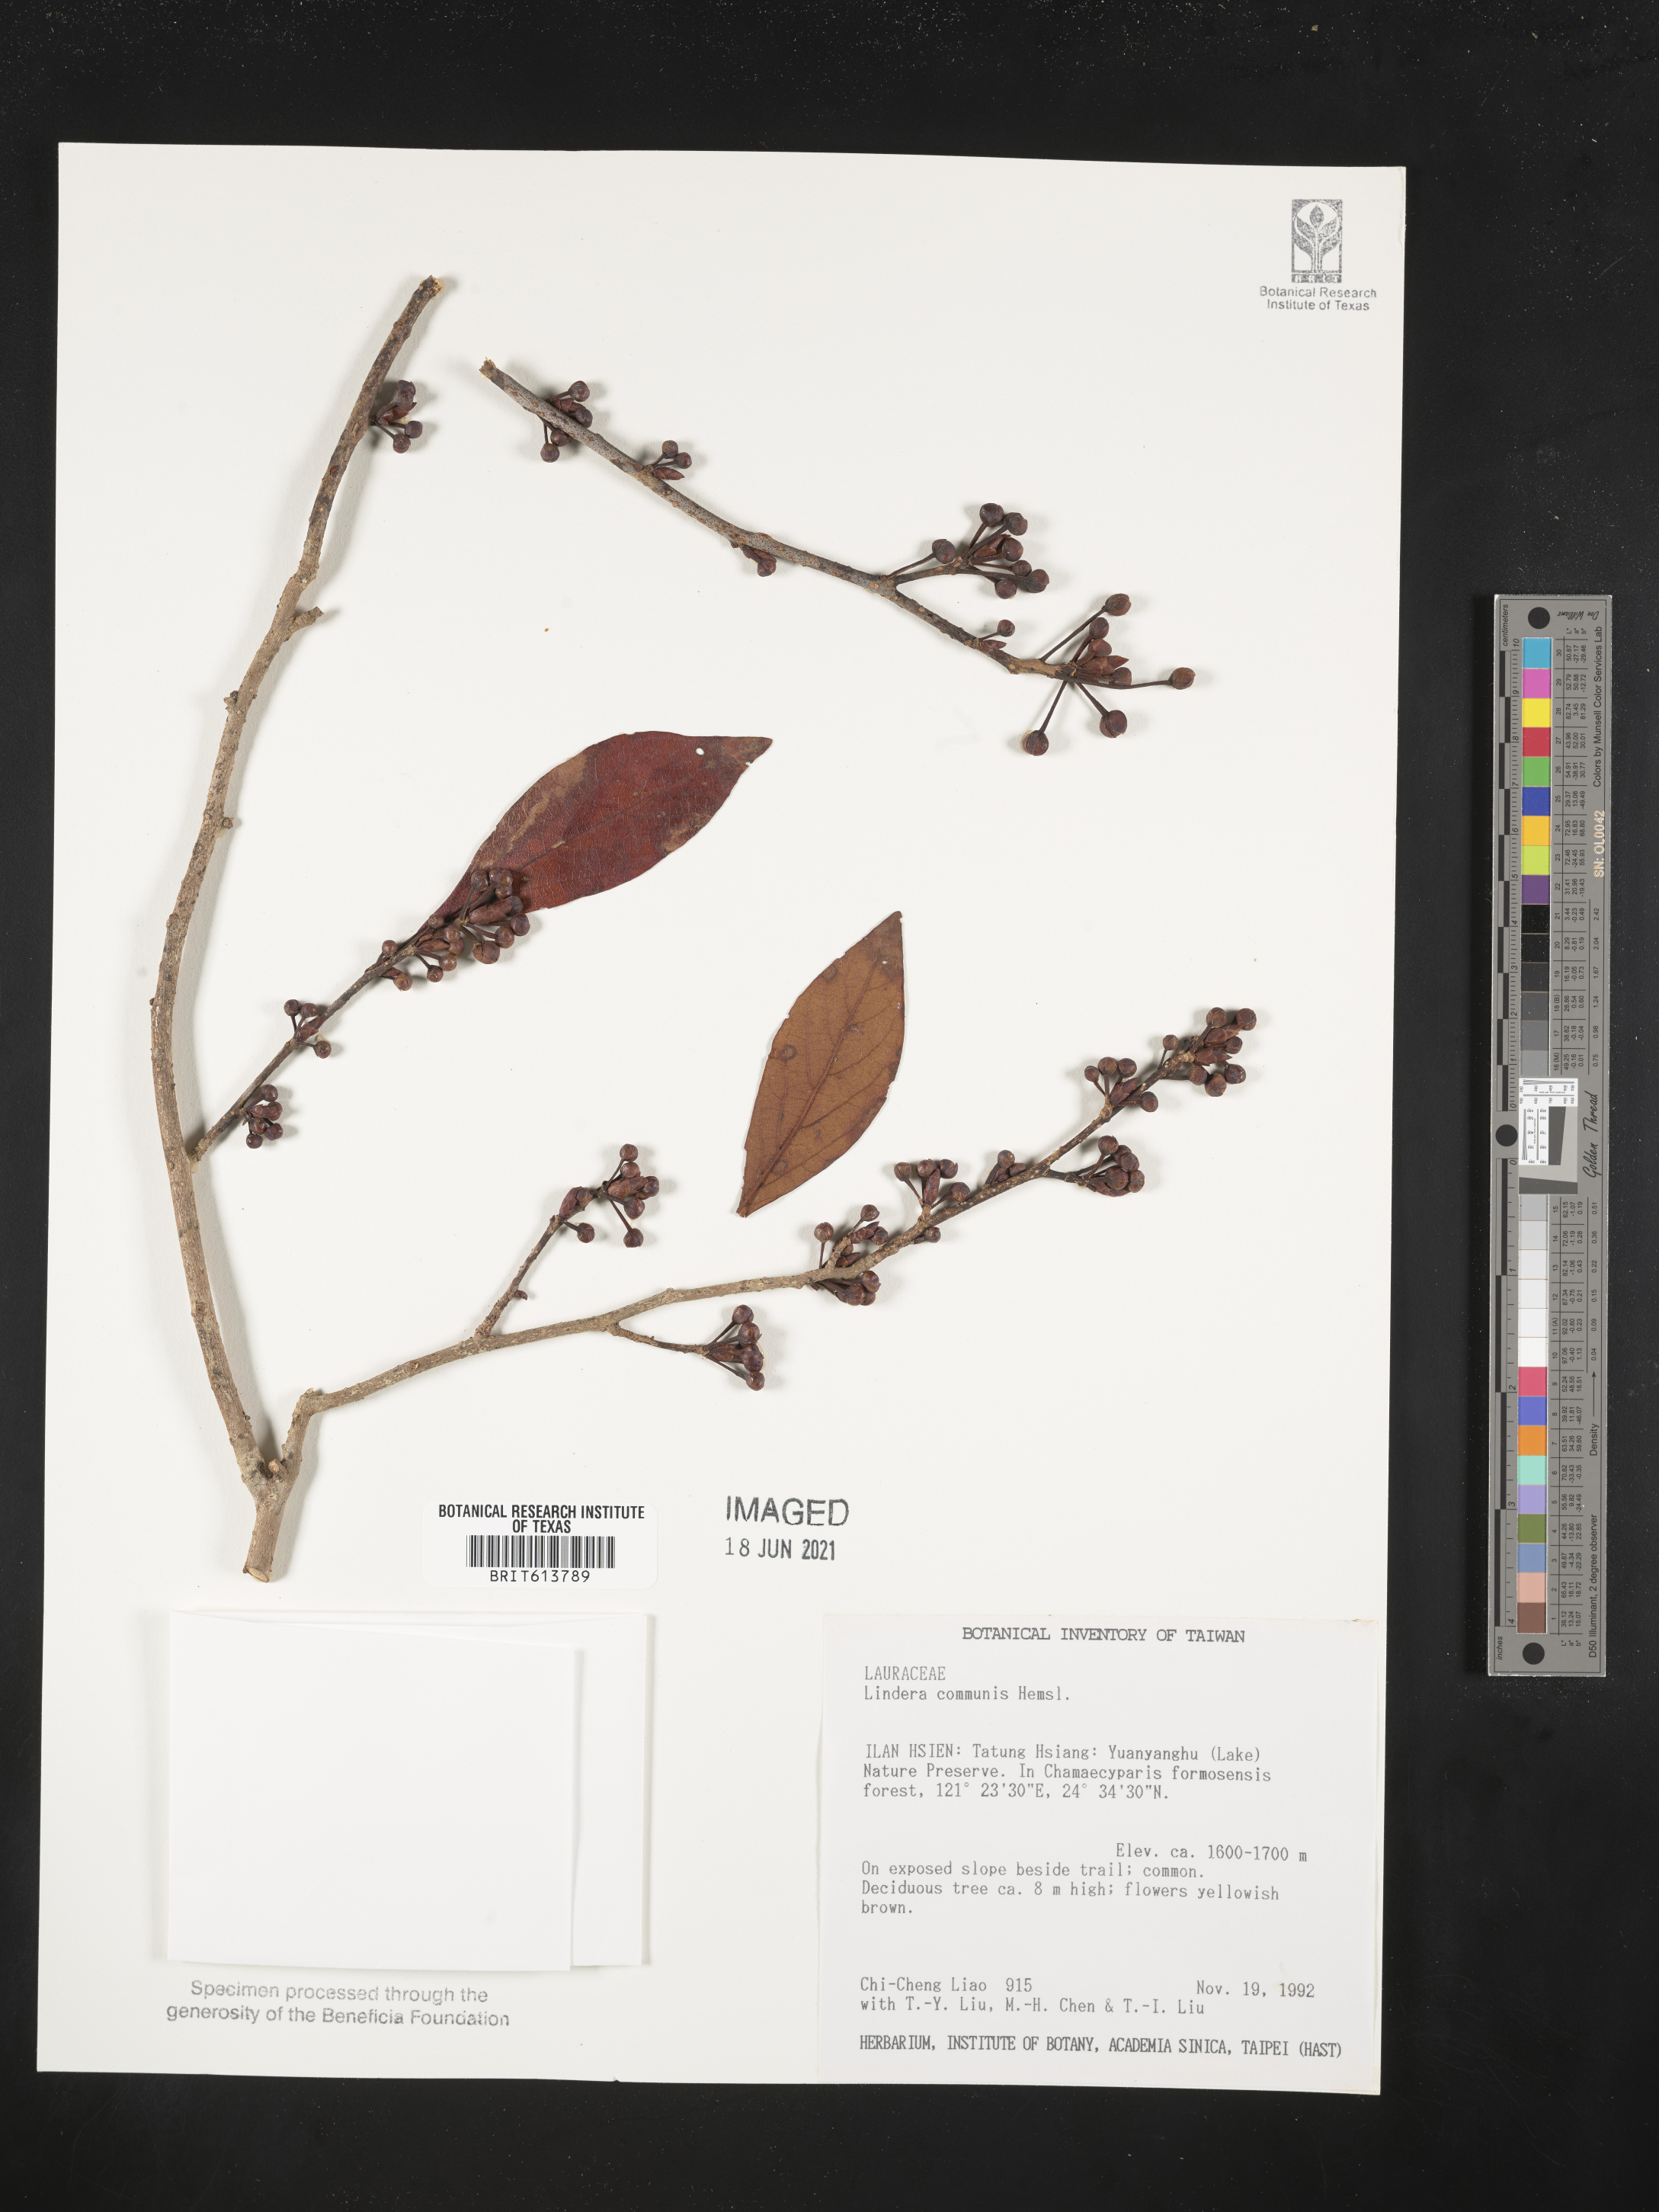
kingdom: Plantae
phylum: Tracheophyta
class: Magnoliopsida
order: Laurales
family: Lauraceae
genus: Lindera
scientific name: Lindera communis
